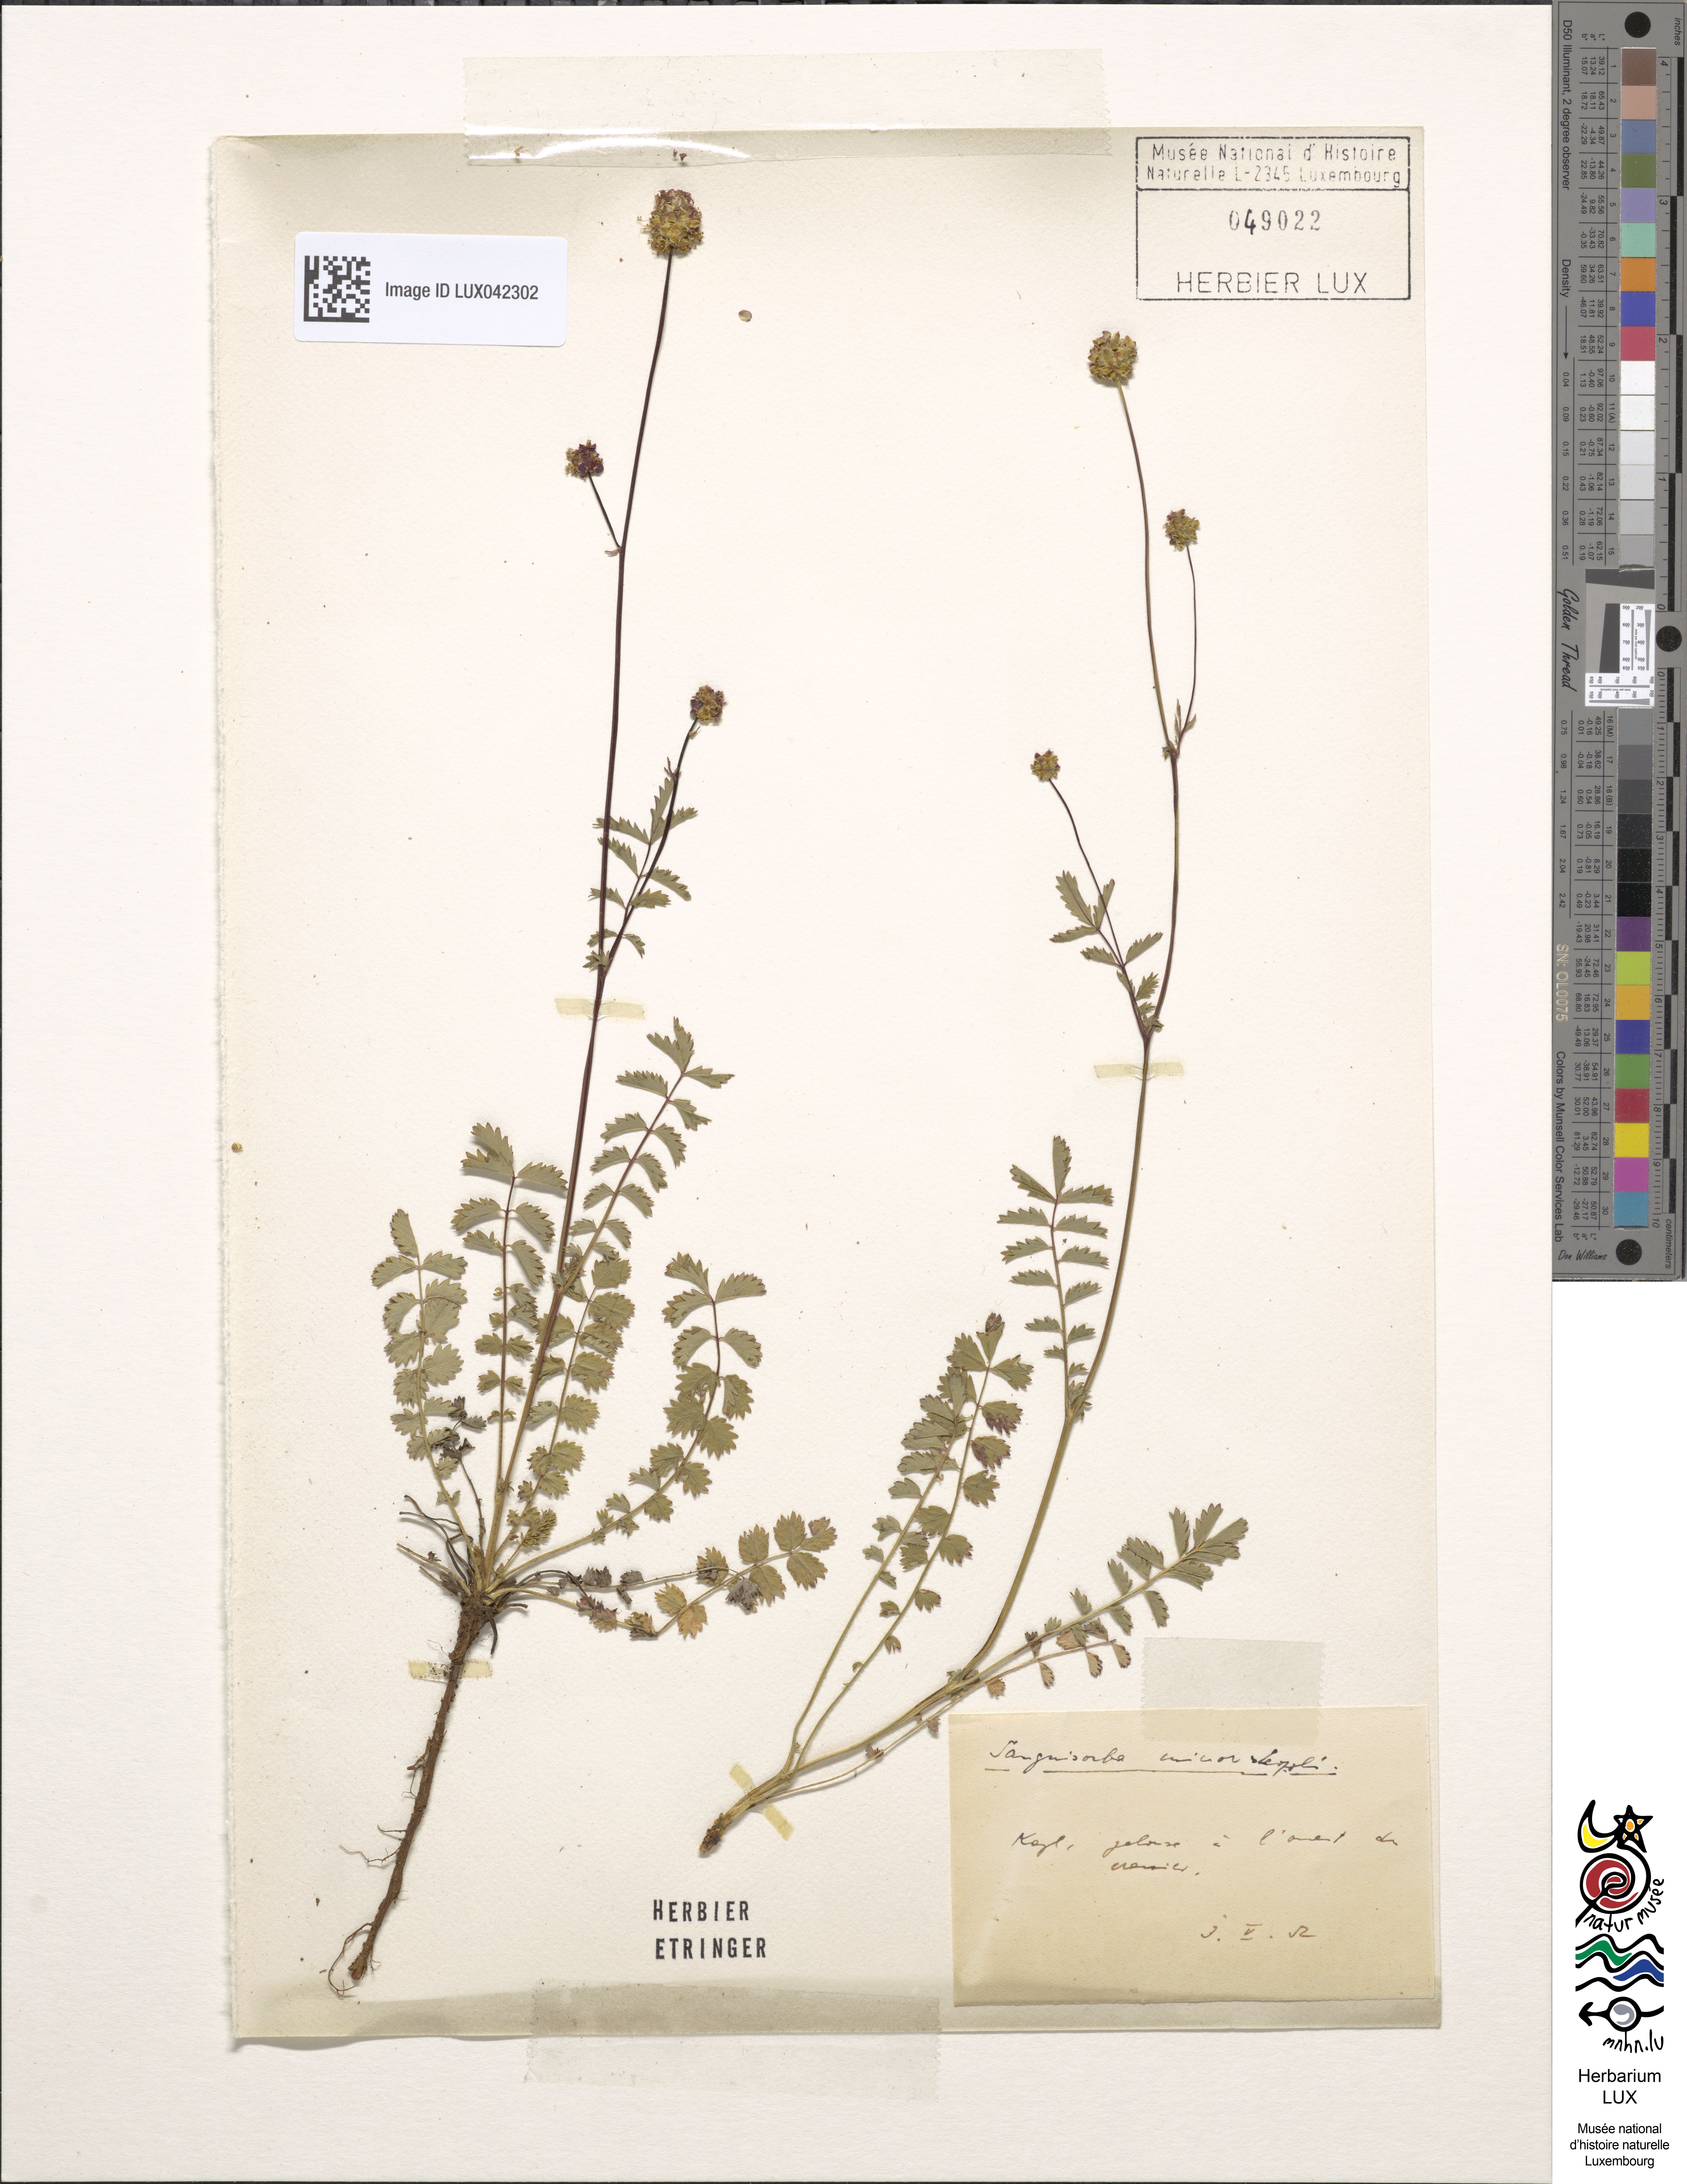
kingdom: Plantae
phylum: Tracheophyta
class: Magnoliopsida
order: Rosales
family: Rosaceae
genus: Poterium
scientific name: Poterium sanguisorba
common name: Salad burnet
